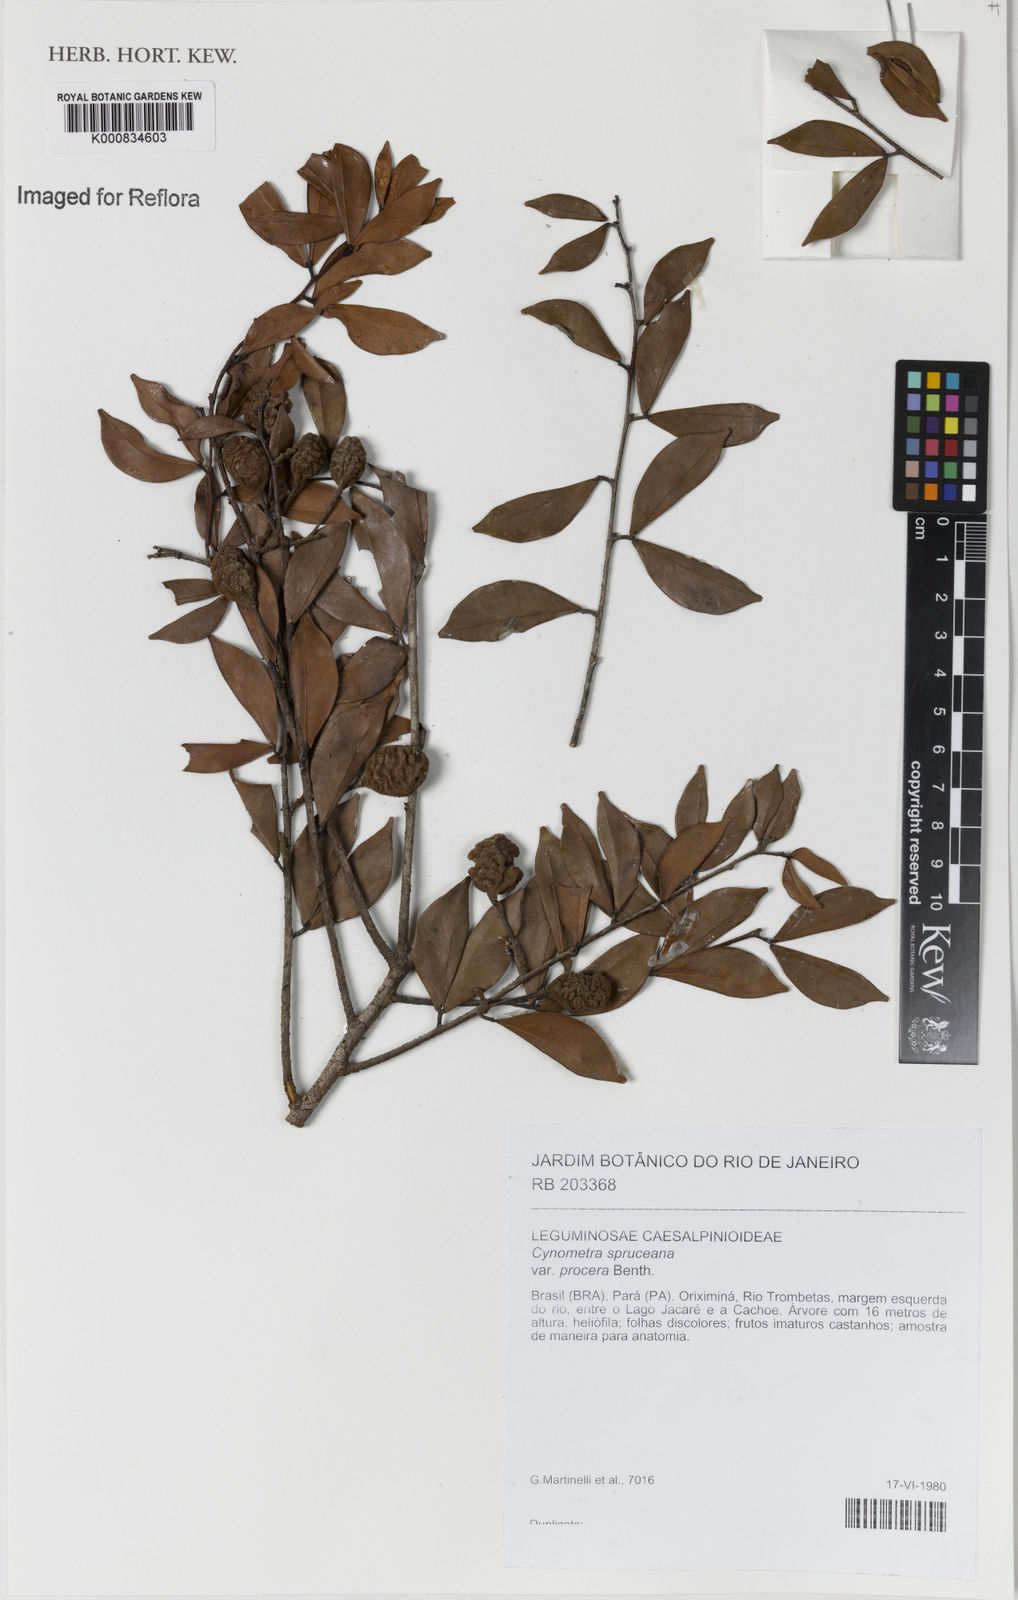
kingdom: Plantae
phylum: Tracheophyta
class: Magnoliopsida
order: Fabales
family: Fabaceae
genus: Cynometra
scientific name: Cynometra phaselocarpa
